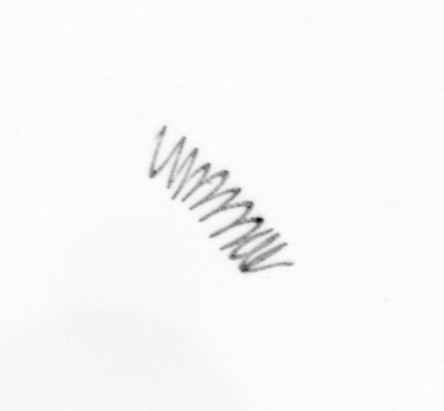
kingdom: Chromista
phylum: Ochrophyta
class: Bacillariophyceae
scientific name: Bacillariophyceae
